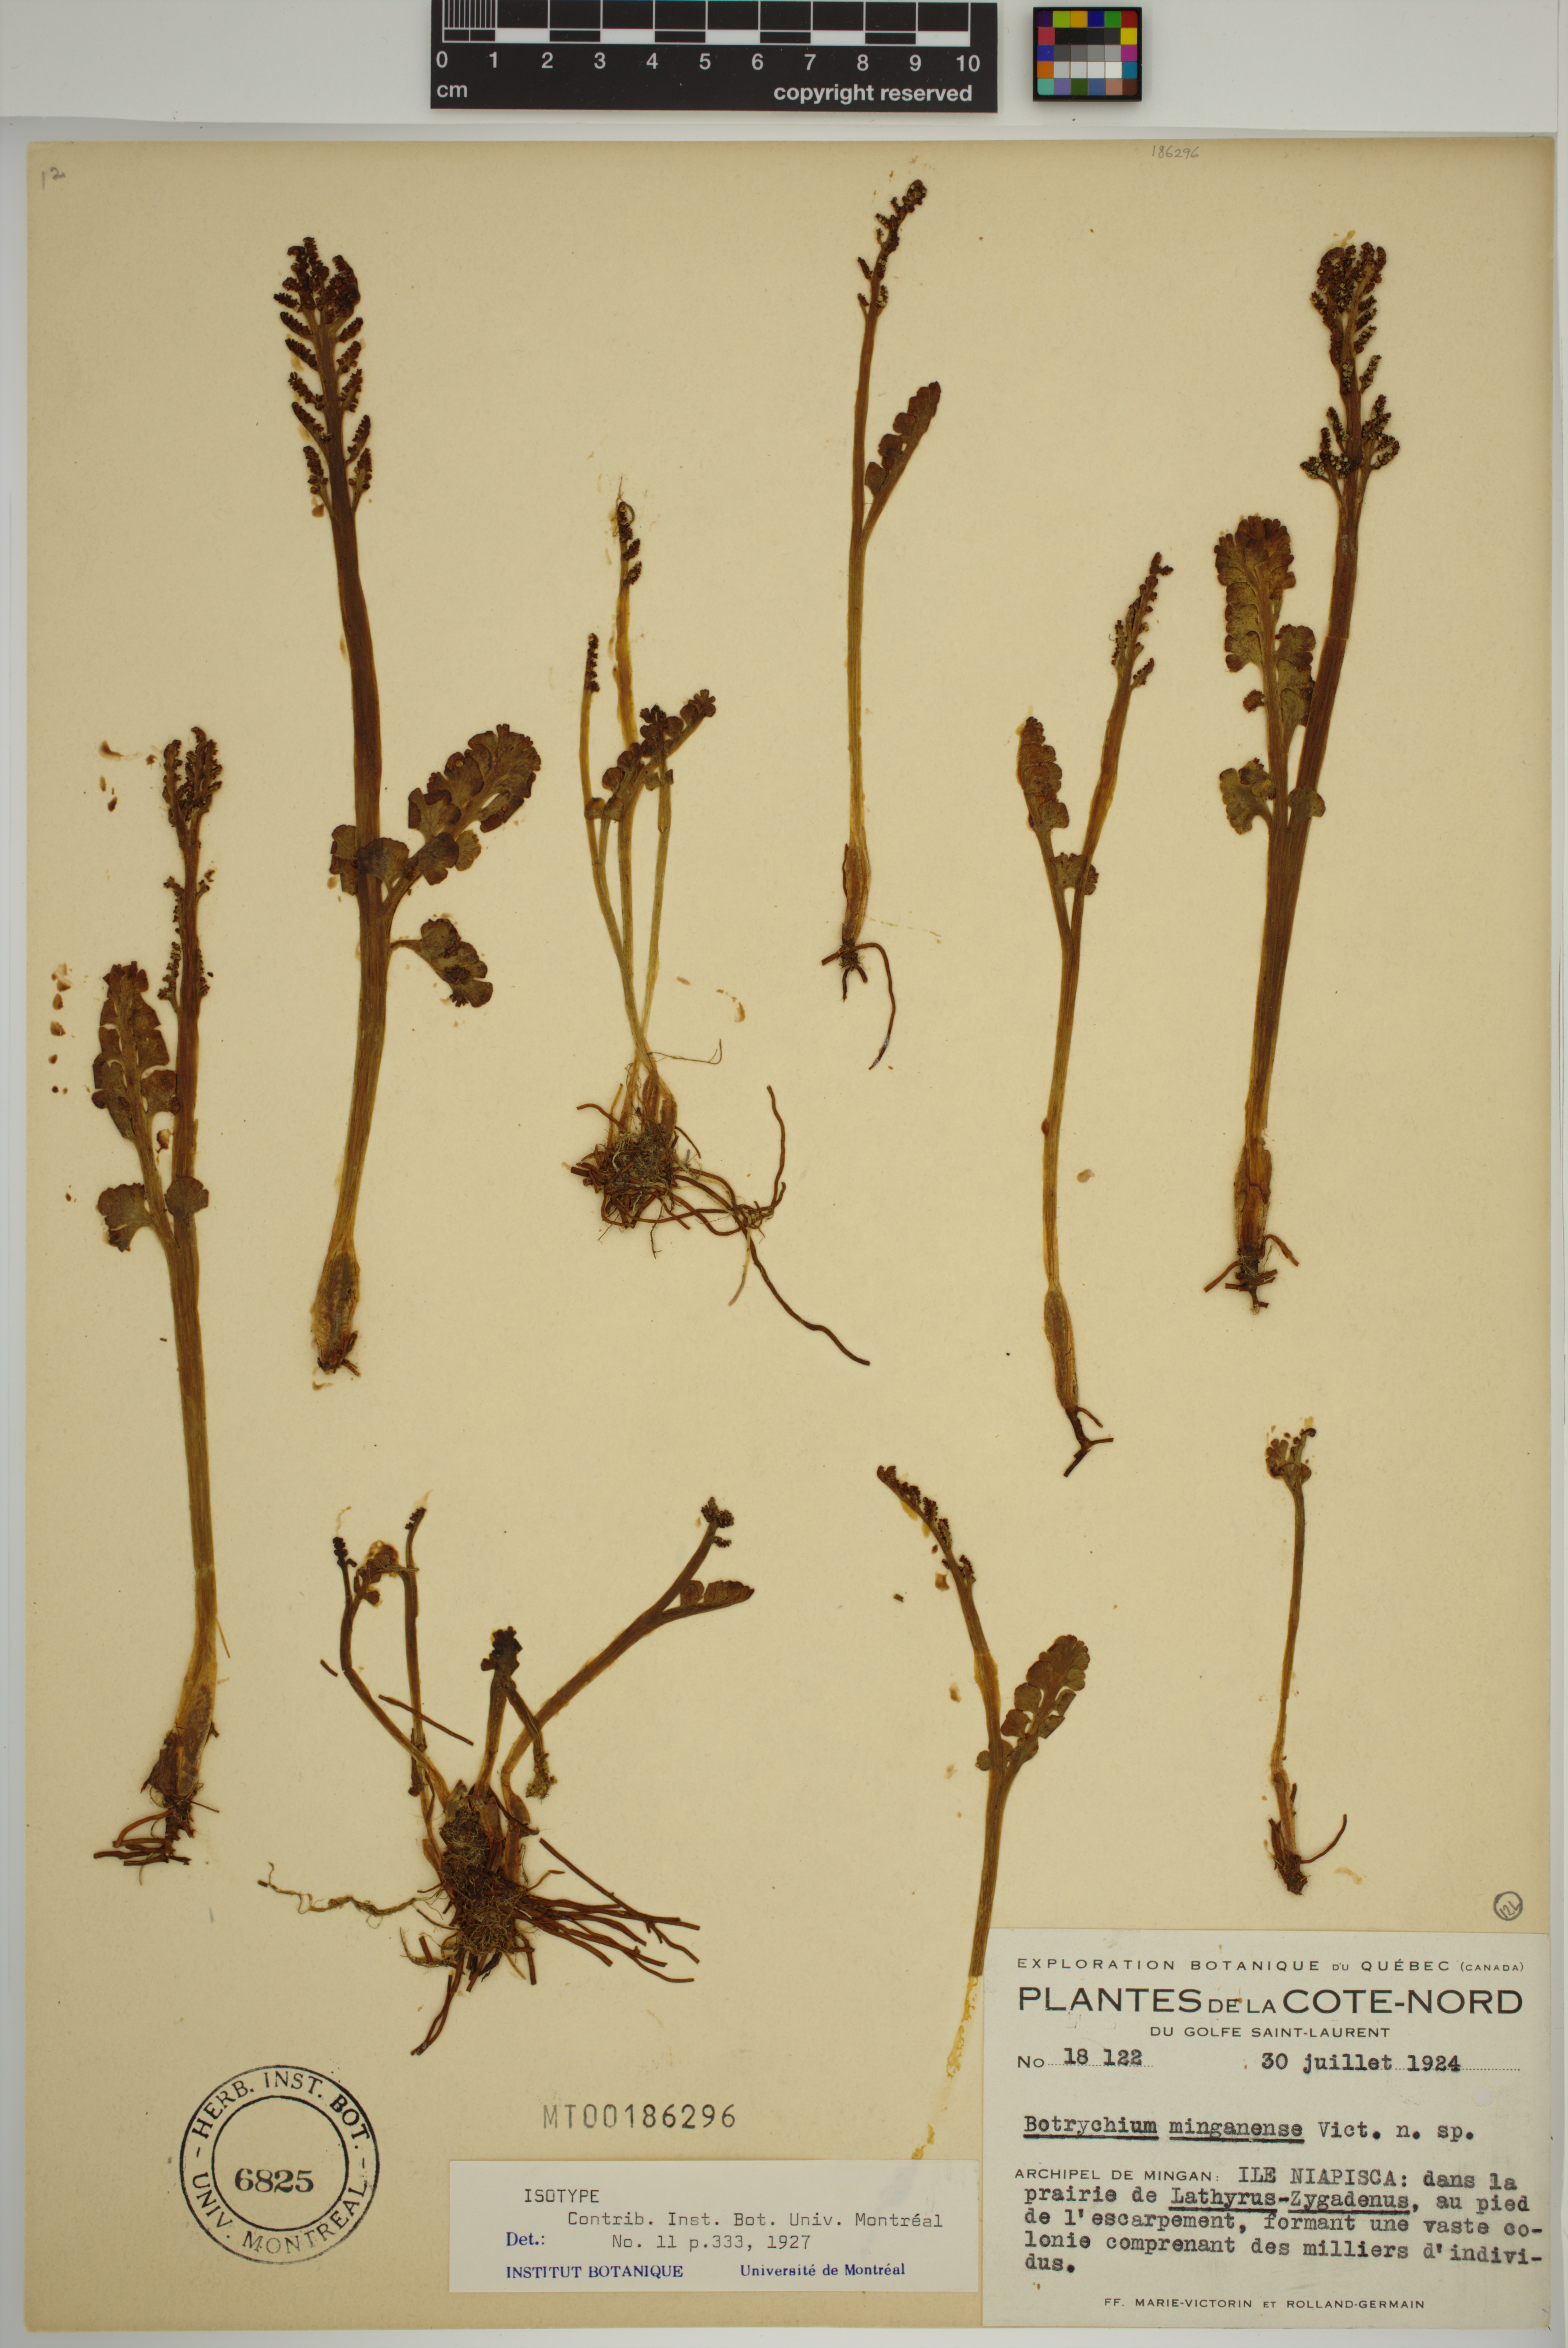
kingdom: Plantae
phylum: Tracheophyta
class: Polypodiopsida
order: Ophioglossales
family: Ophioglossaceae
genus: Botrychium
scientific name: Botrychium minganense
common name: Mingan grapefern
